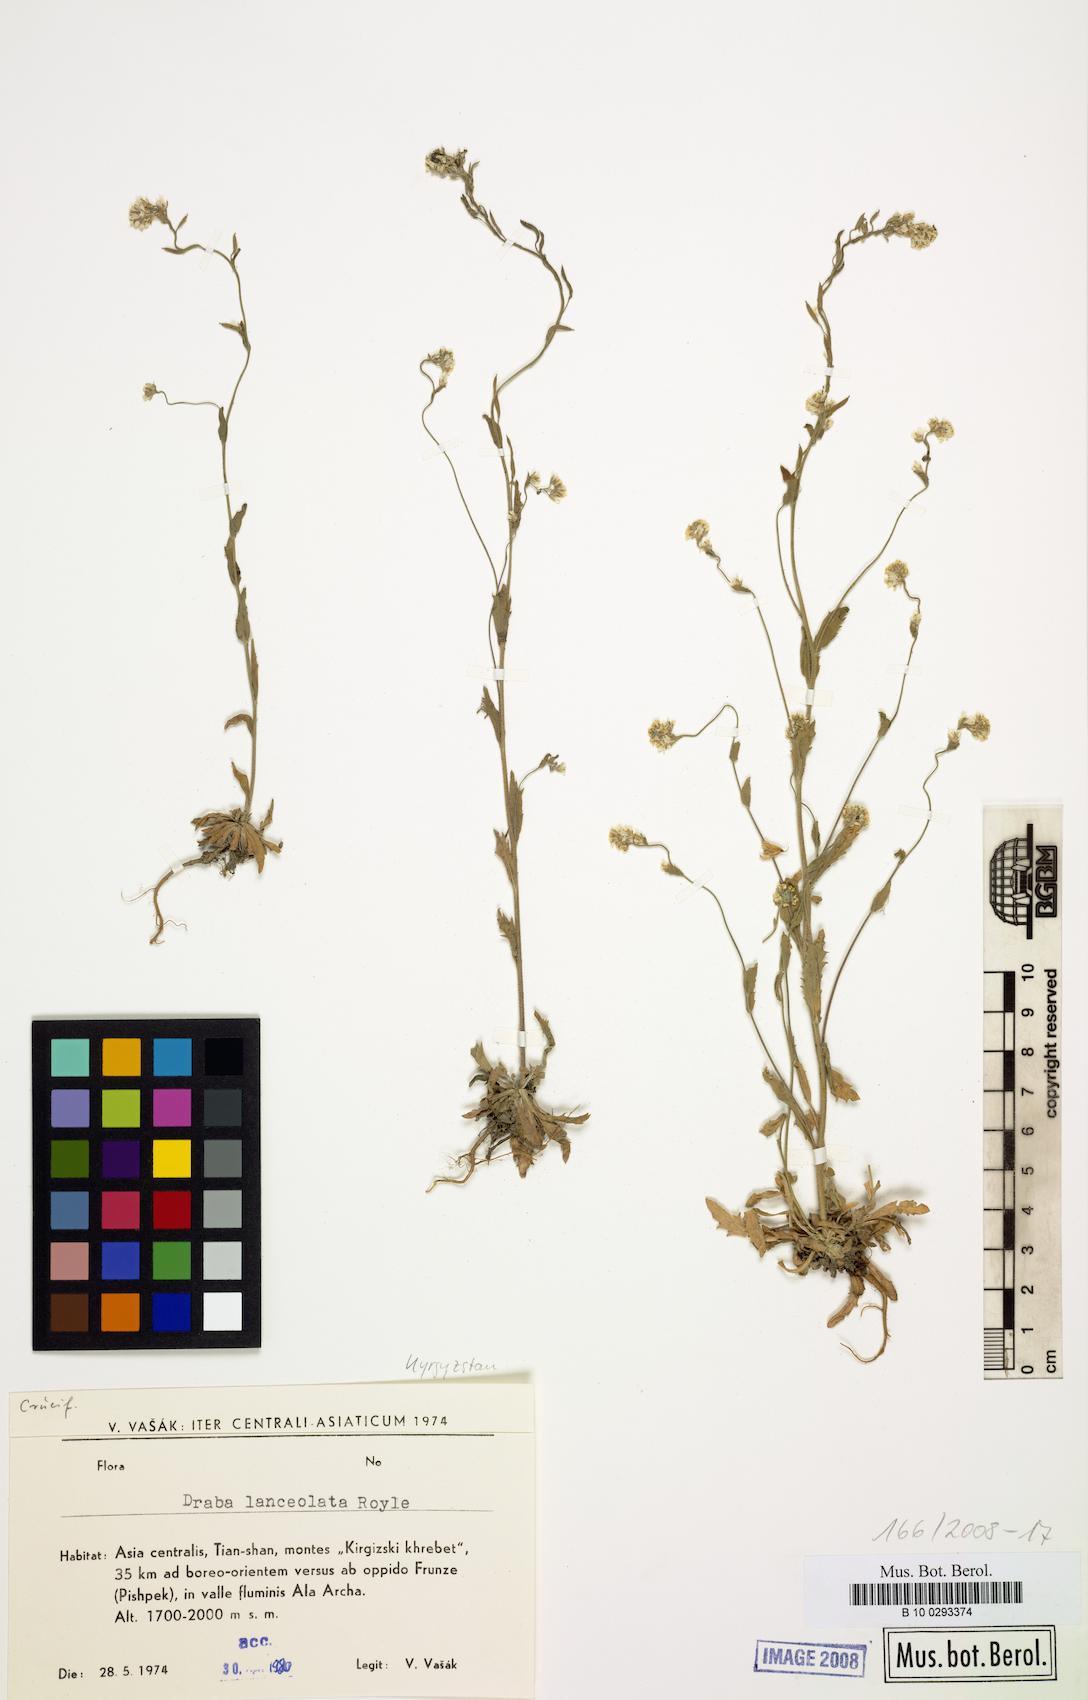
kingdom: Plantae
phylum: Tracheophyta
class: Magnoliopsida
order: Brassicales
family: Brassicaceae
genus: Draba
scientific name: Draba lanceolata
